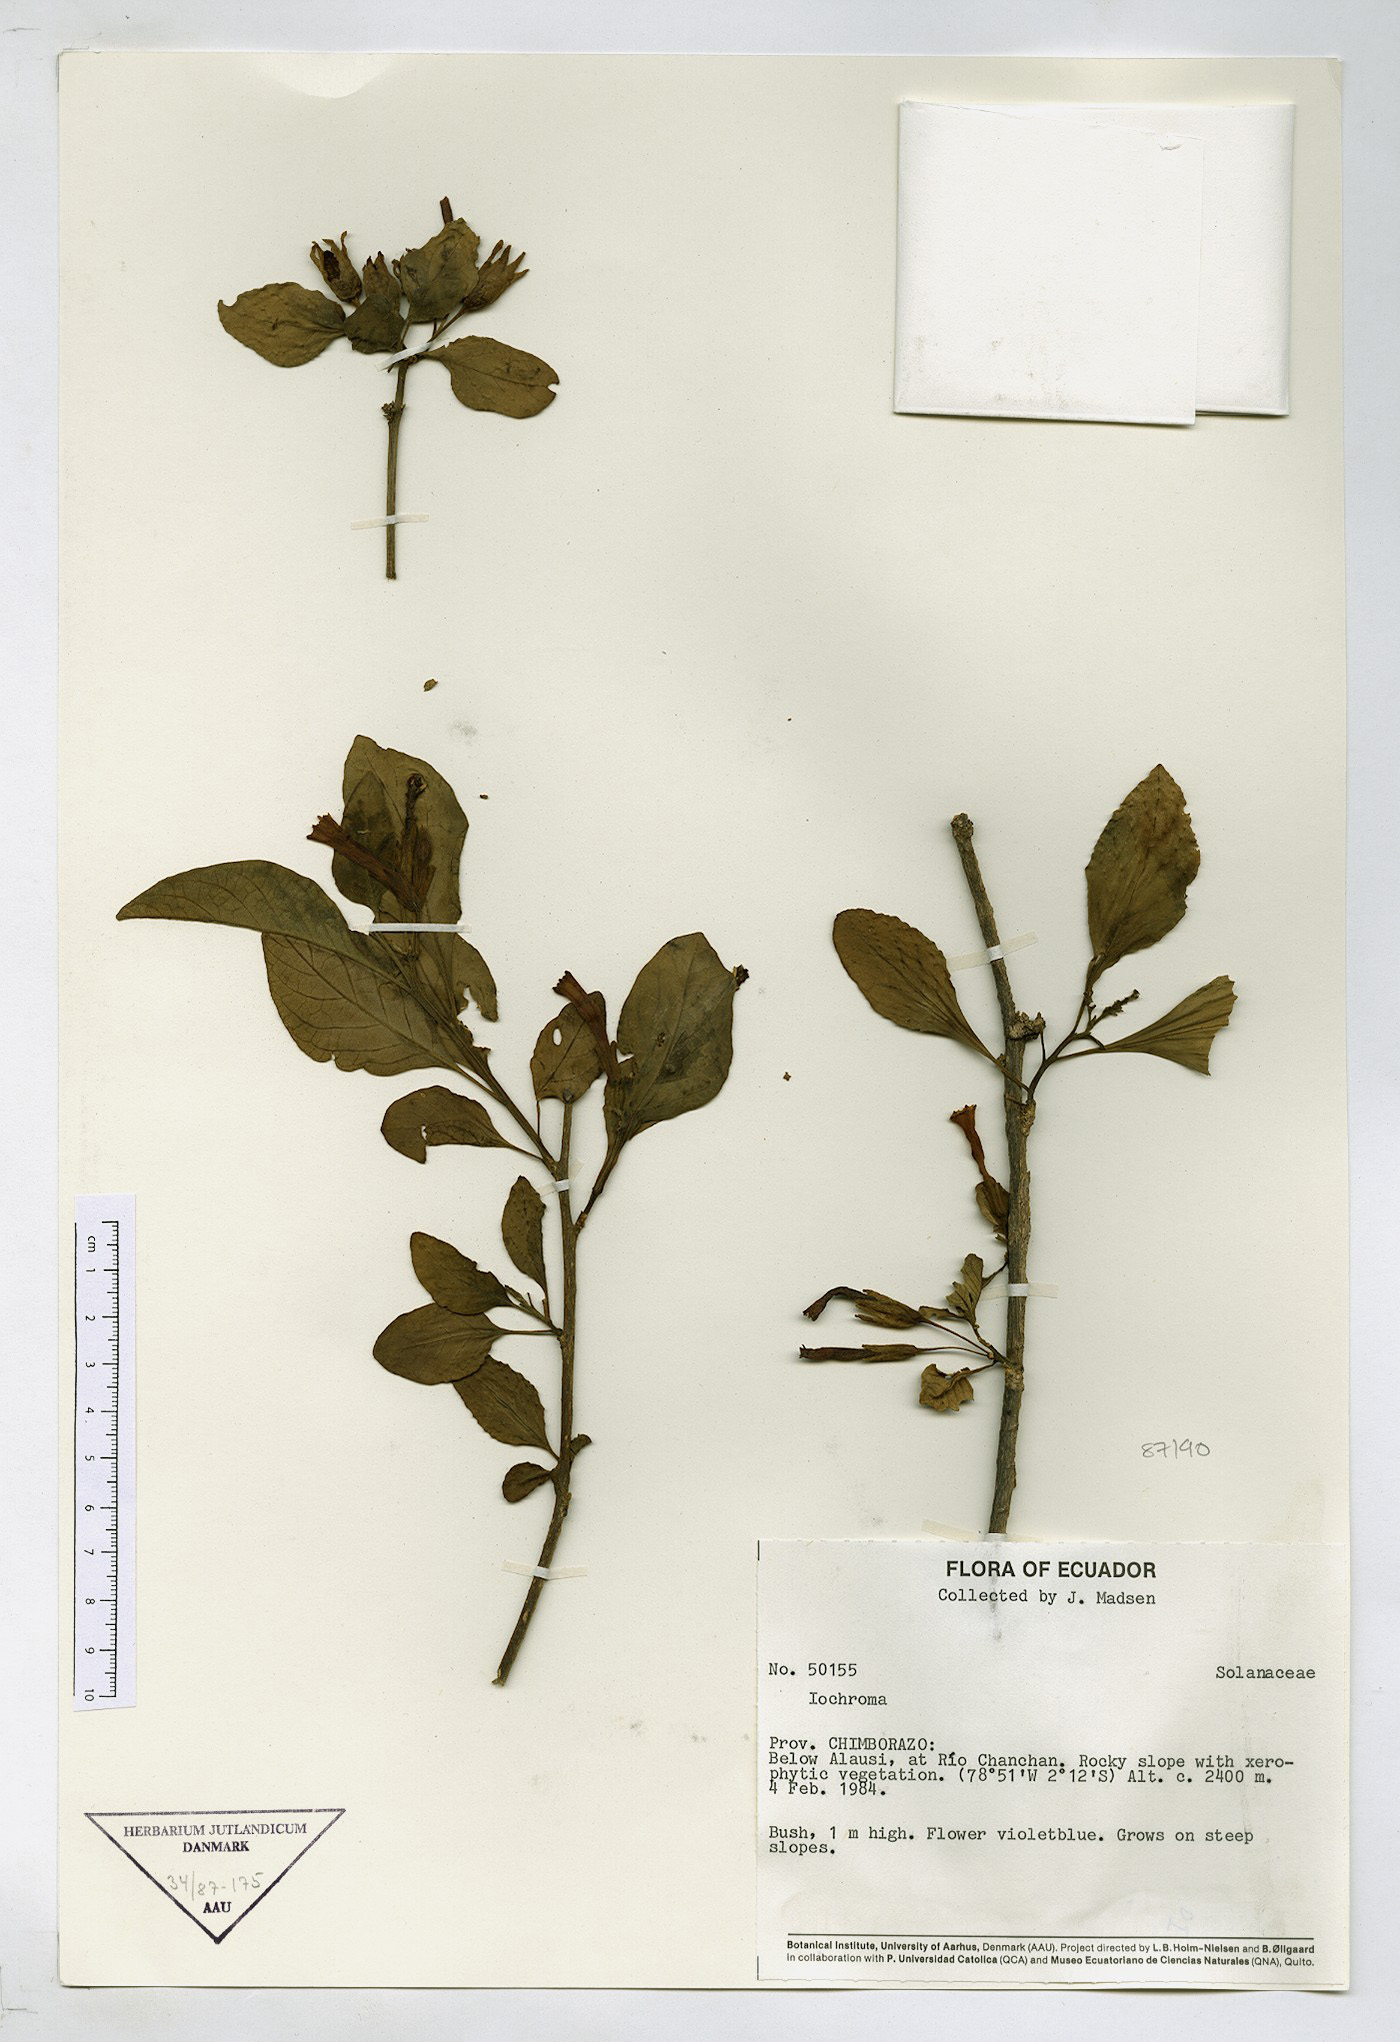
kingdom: Plantae
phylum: Tracheophyta
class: Magnoliopsida
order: Solanales
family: Solanaceae
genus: Iochroma
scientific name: Iochroma
